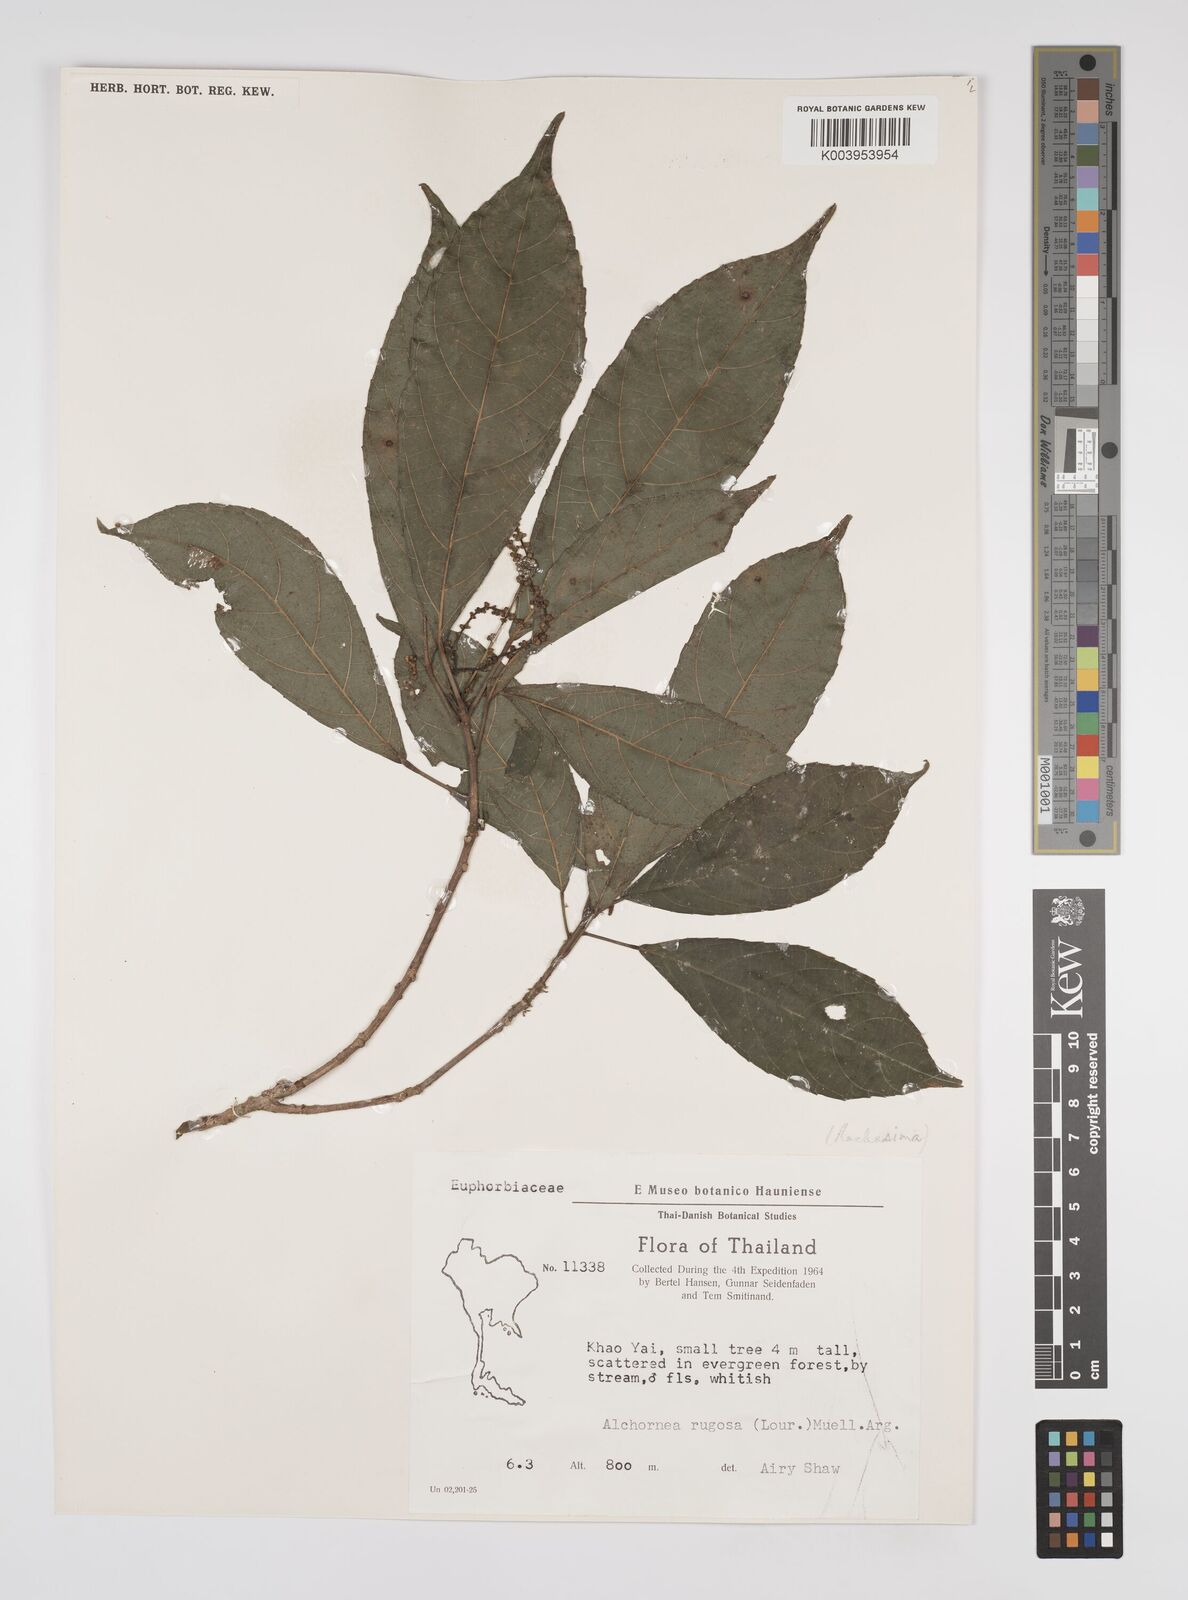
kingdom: Plantae
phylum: Tracheophyta
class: Magnoliopsida
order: Malpighiales
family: Euphorbiaceae
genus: Alchornea
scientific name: Alchornea rugosa
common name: Alchorntree
